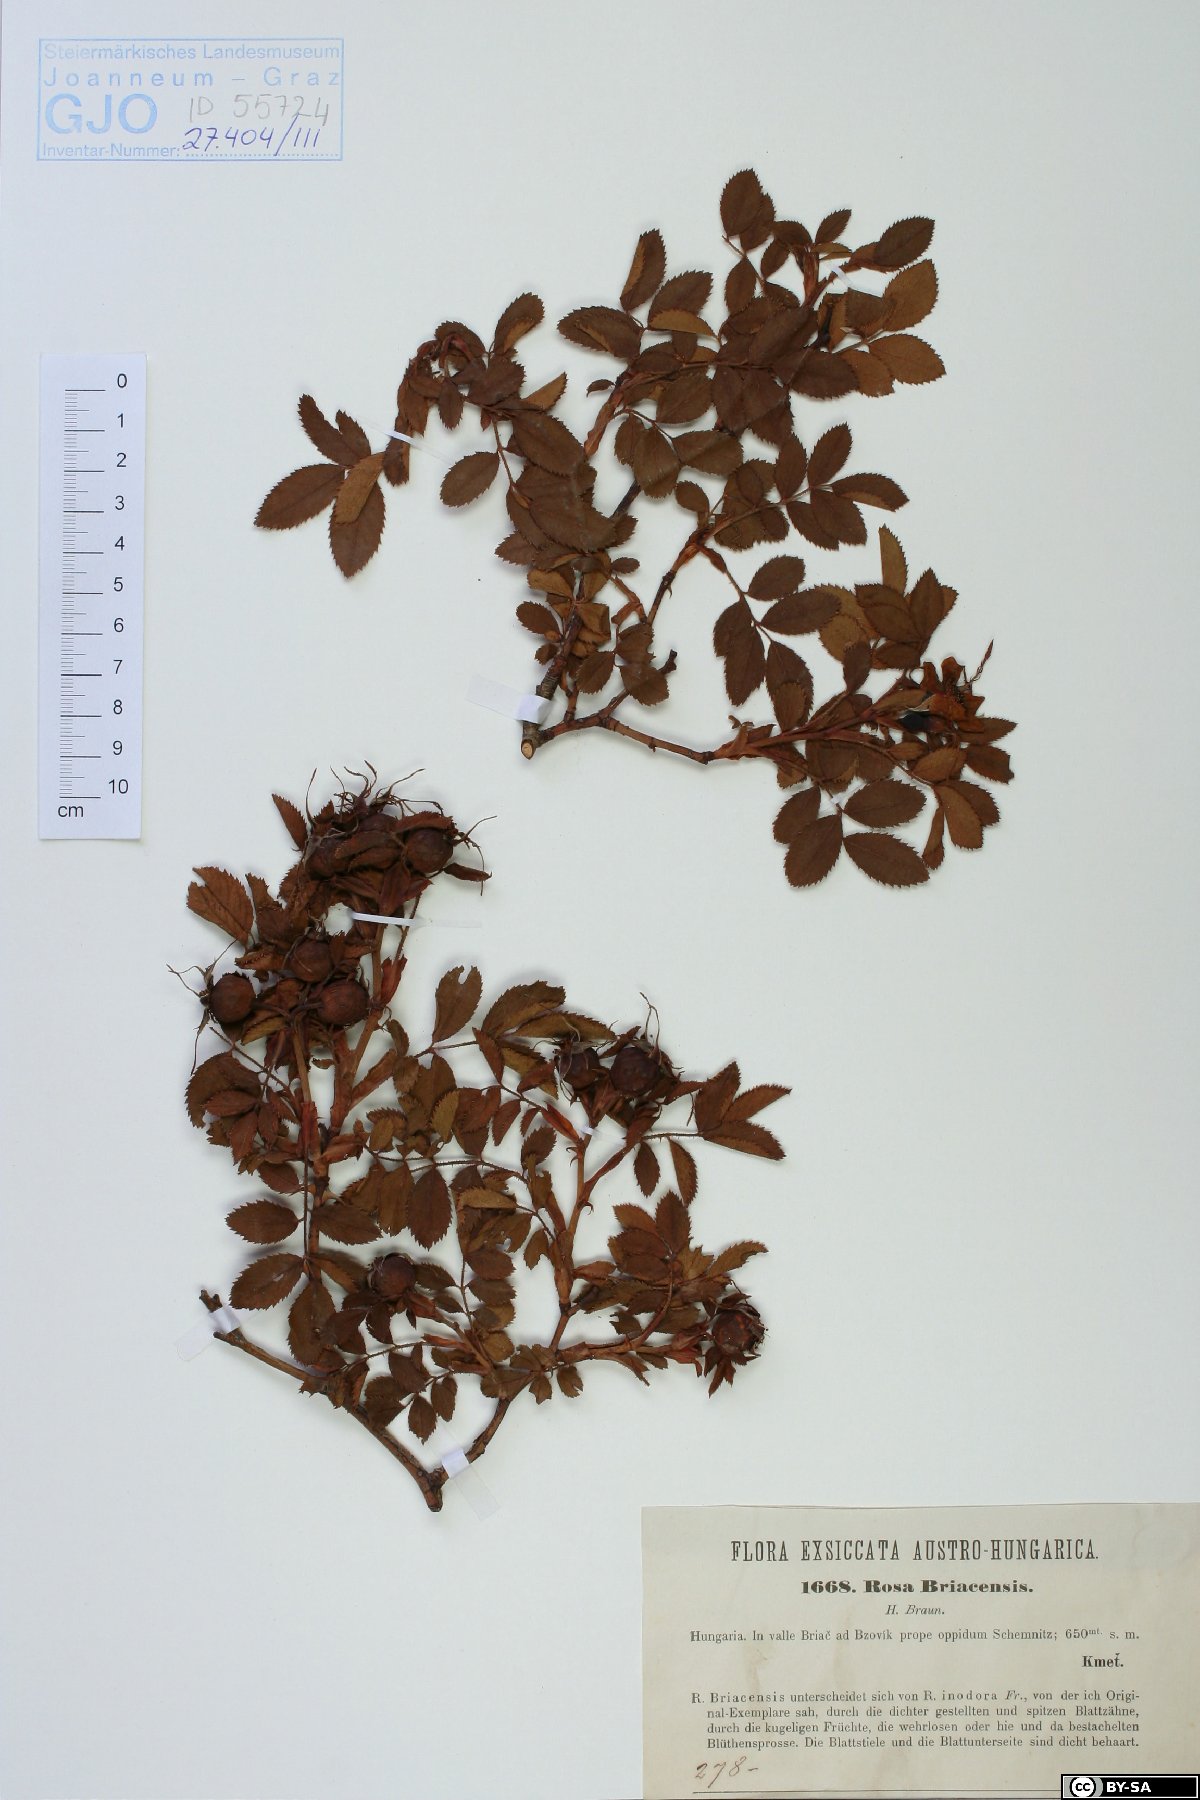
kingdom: Plantae
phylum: Tracheophyta
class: Magnoliopsida
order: Rosales
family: Rosaceae
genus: Rosa
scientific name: Rosa inodora
